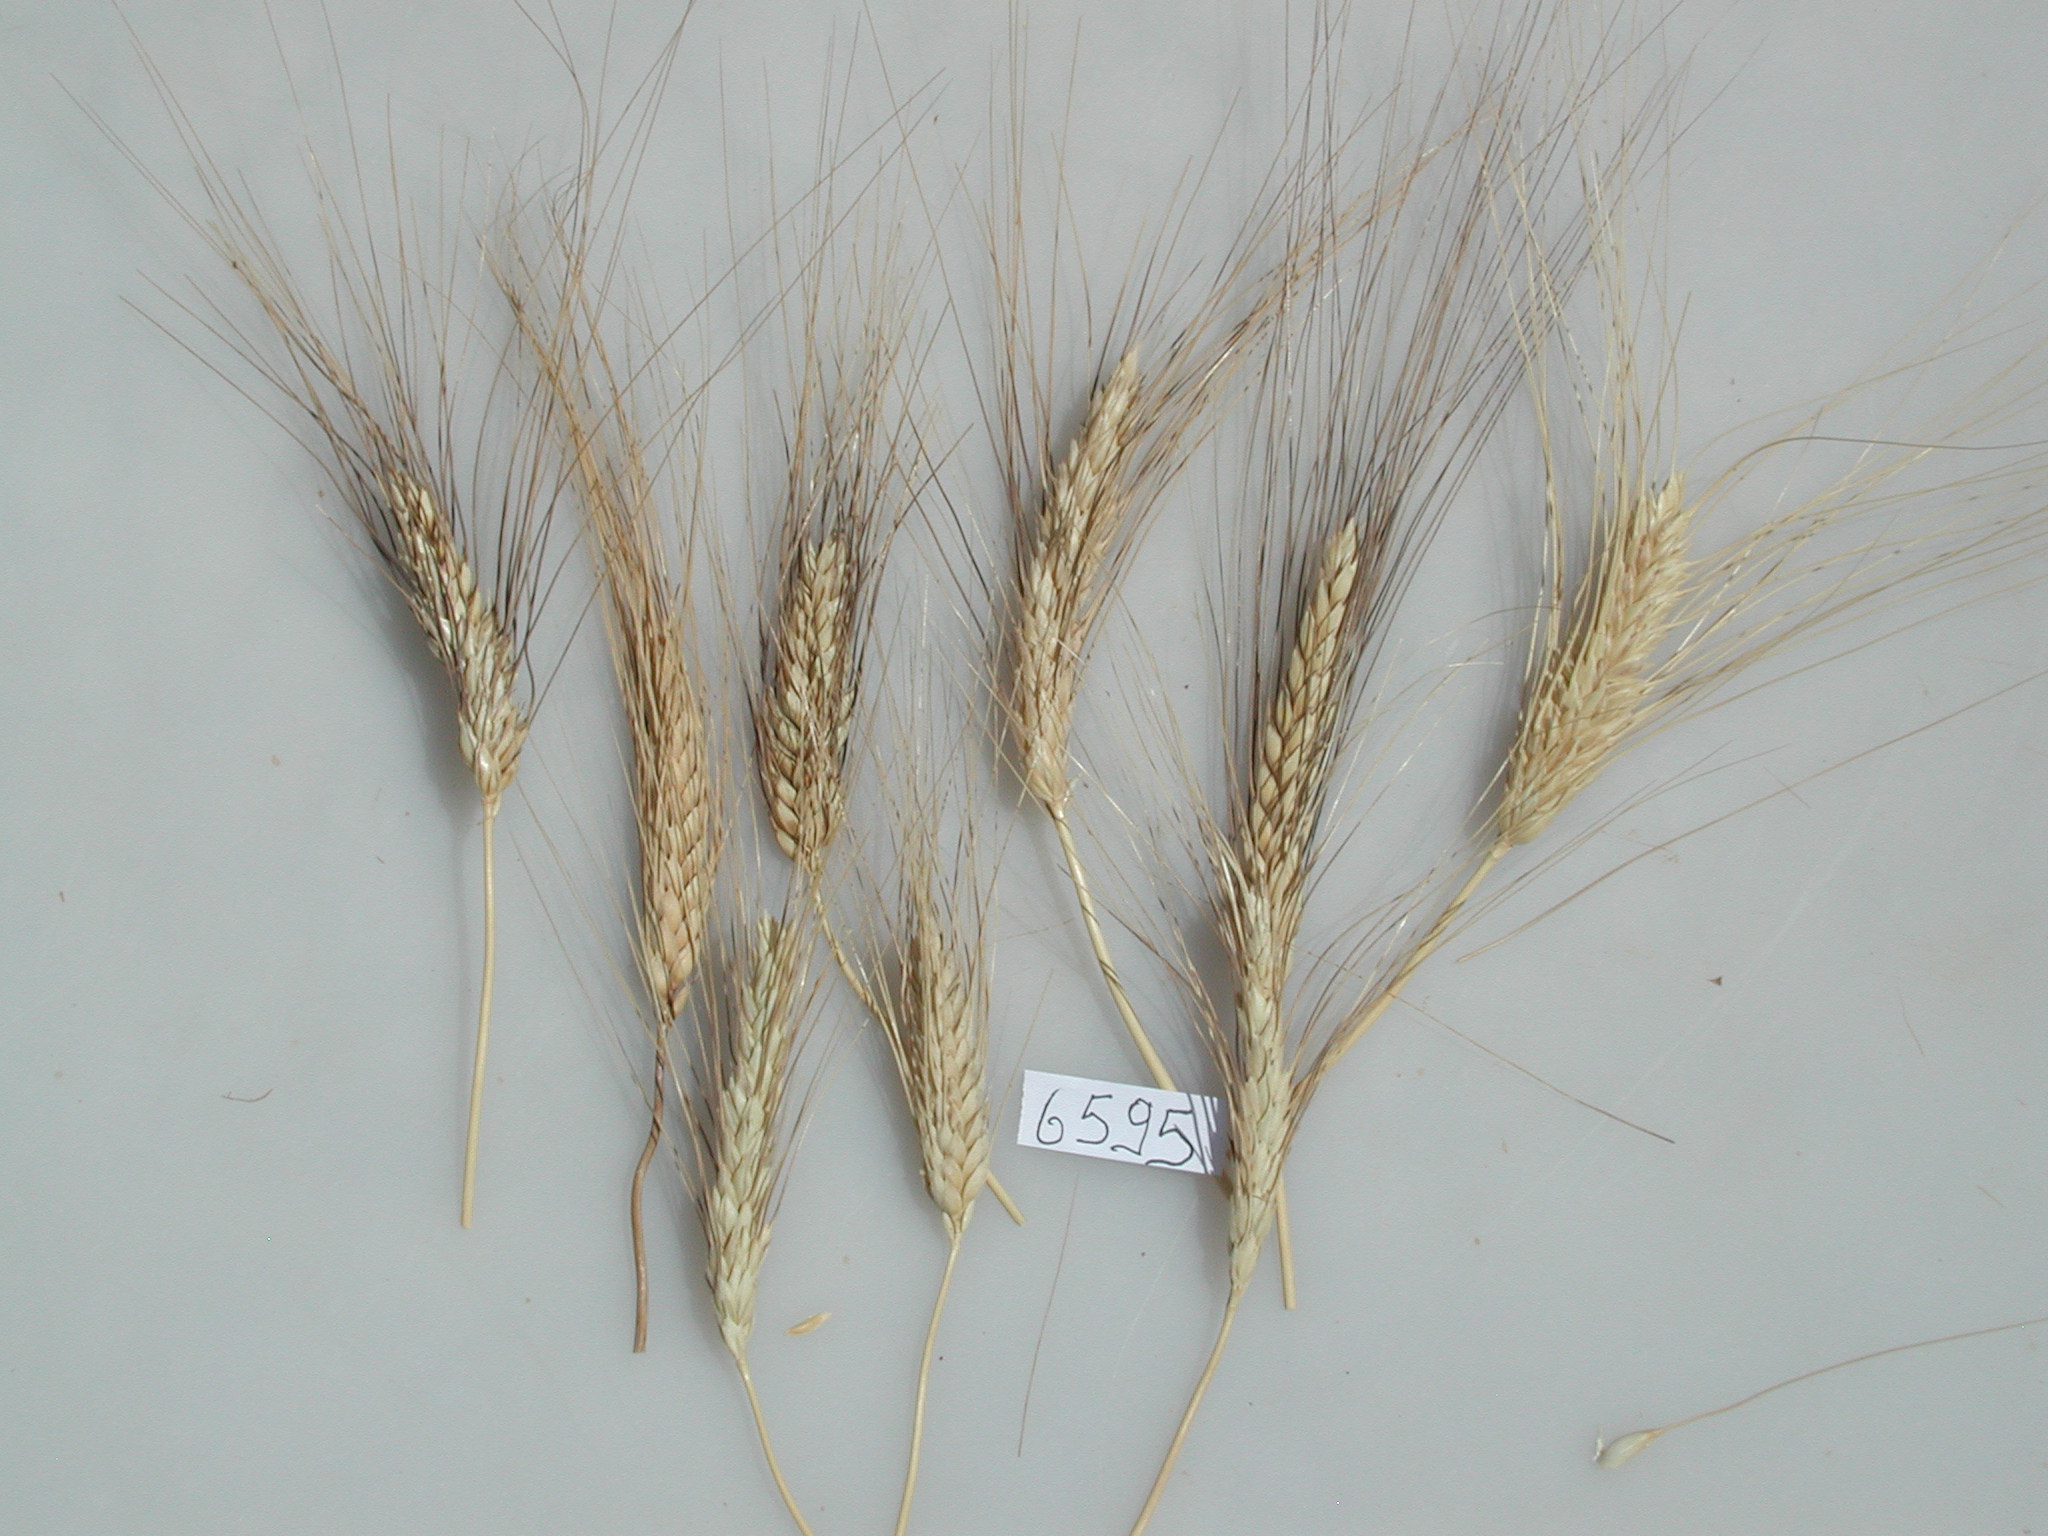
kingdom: Plantae
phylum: Tracheophyta
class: Liliopsida
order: Poales
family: Poaceae
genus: Triticum
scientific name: Triticum turgidum
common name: Wheat
